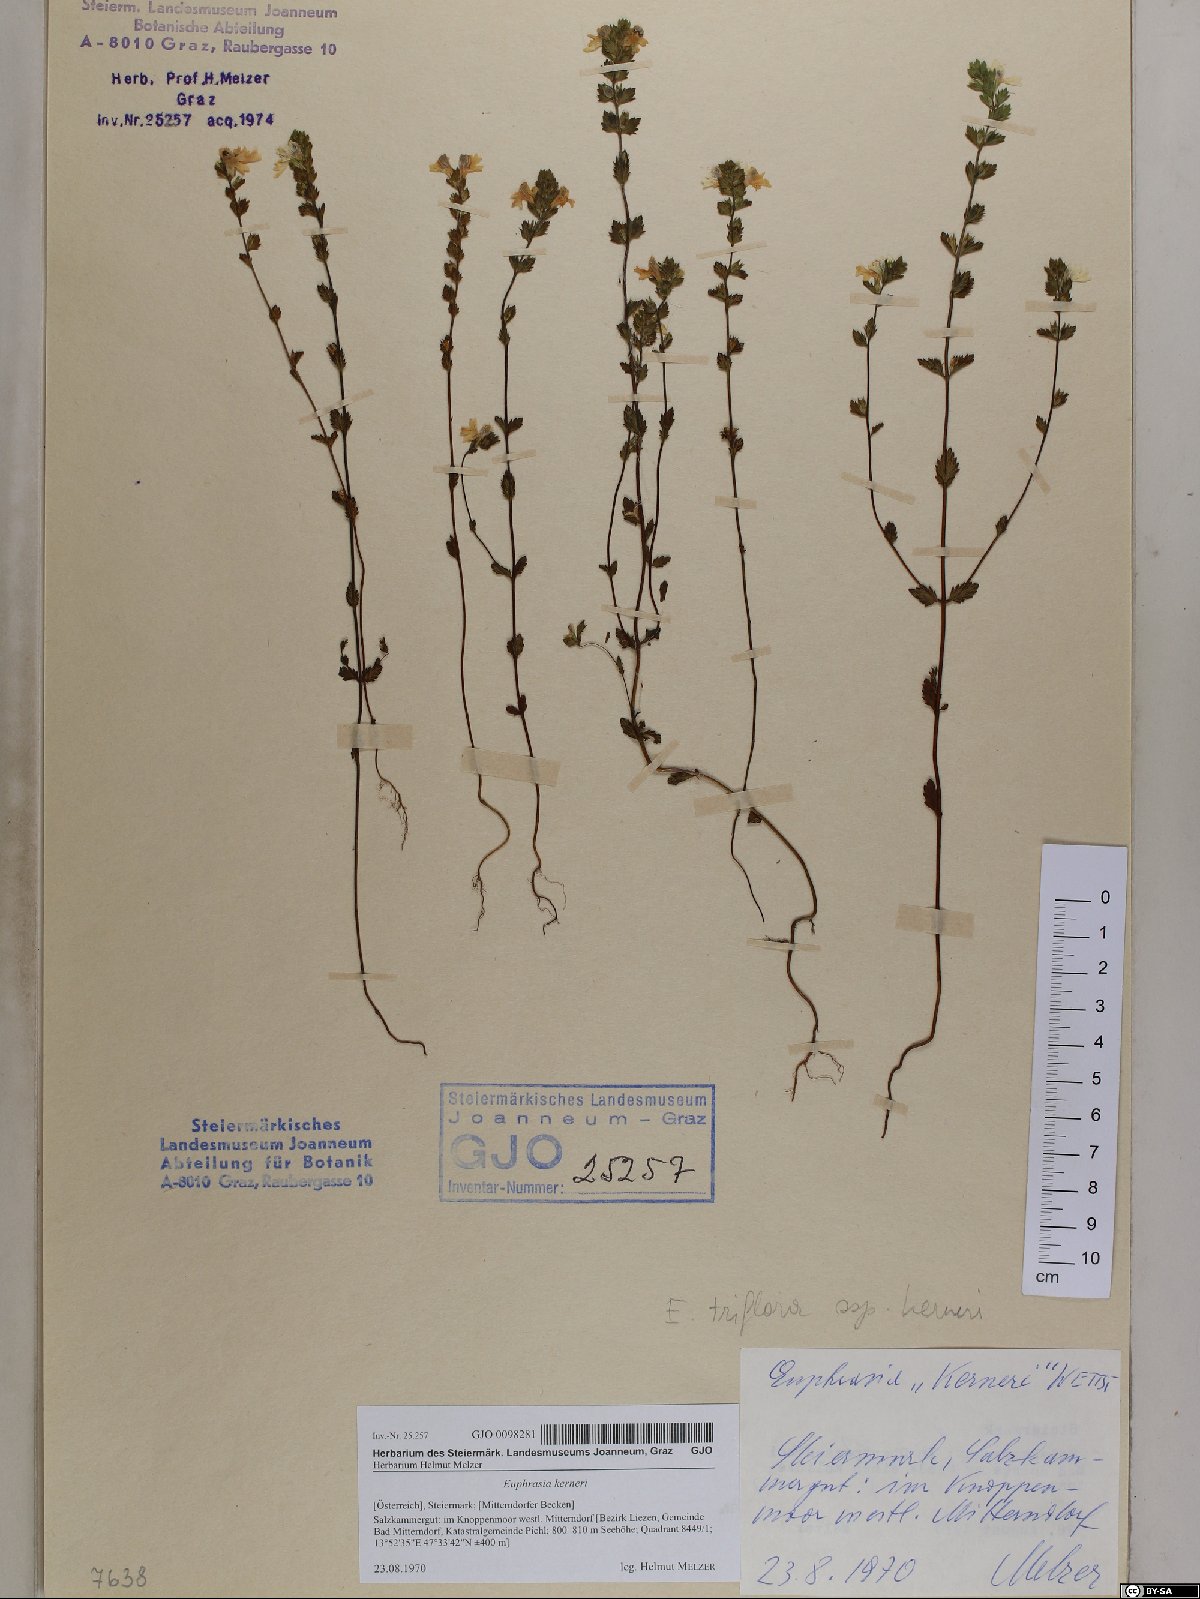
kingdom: Plantae
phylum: Tracheophyta
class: Magnoliopsida
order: Lamiales
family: Orobanchaceae
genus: Euphrasia
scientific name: Euphrasia kerneri
